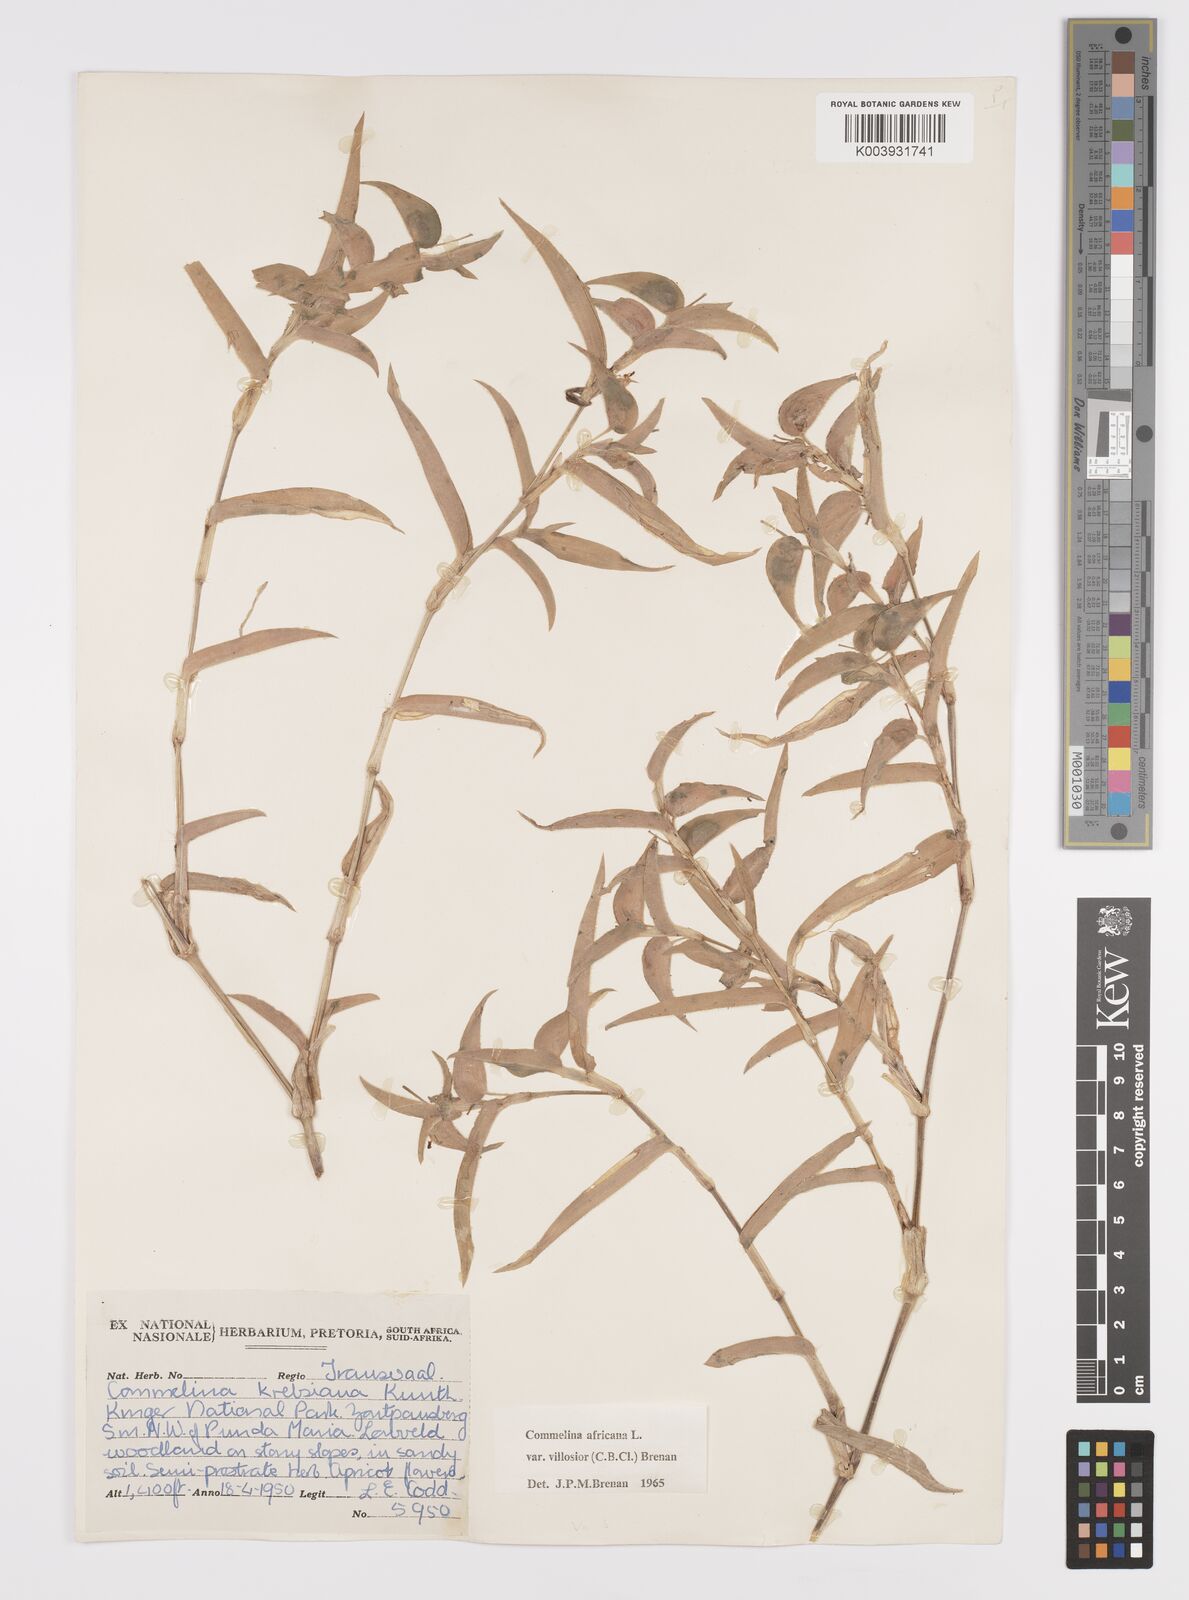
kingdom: Plantae
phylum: Tracheophyta
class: Liliopsida
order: Commelinales
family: Commelinaceae
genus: Commelina
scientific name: Commelina africana
